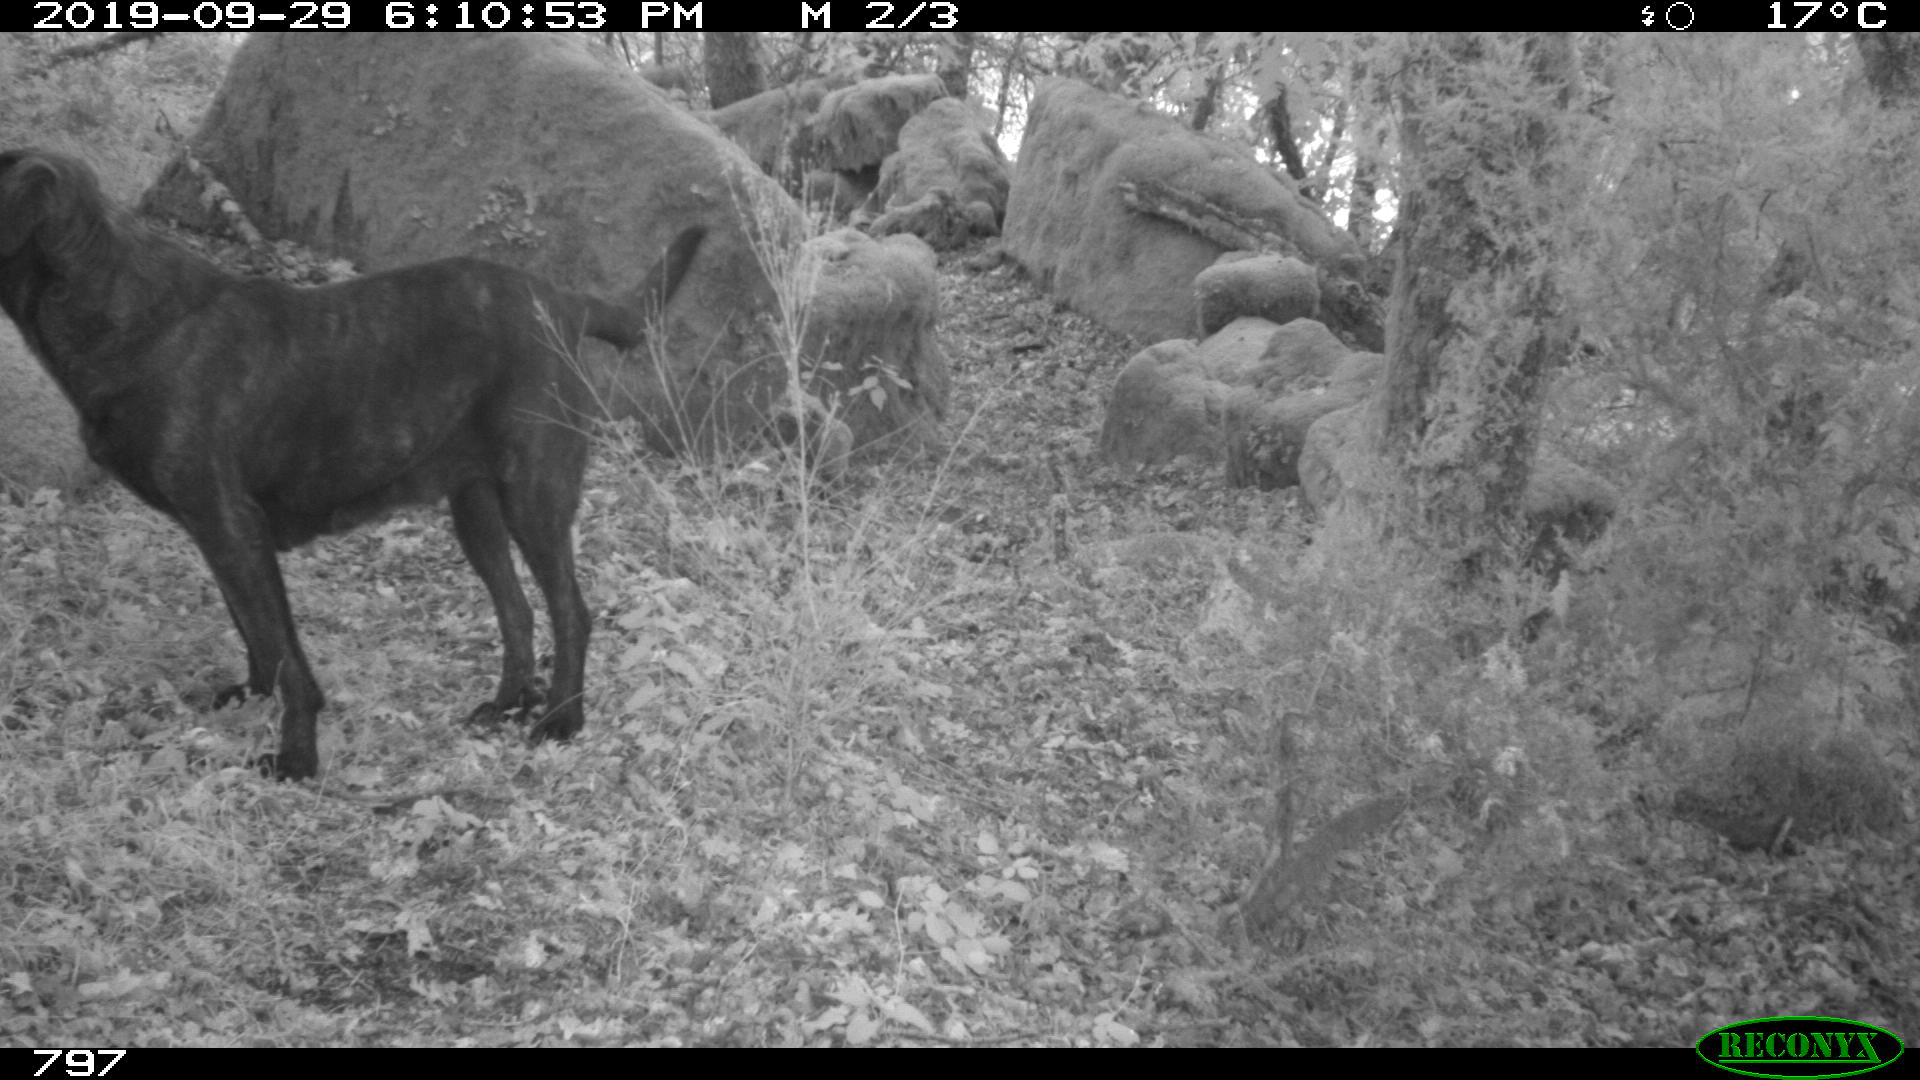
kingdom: Animalia
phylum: Chordata
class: Mammalia
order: Carnivora
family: Canidae
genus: Canis
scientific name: Canis lupus
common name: Gray wolf
